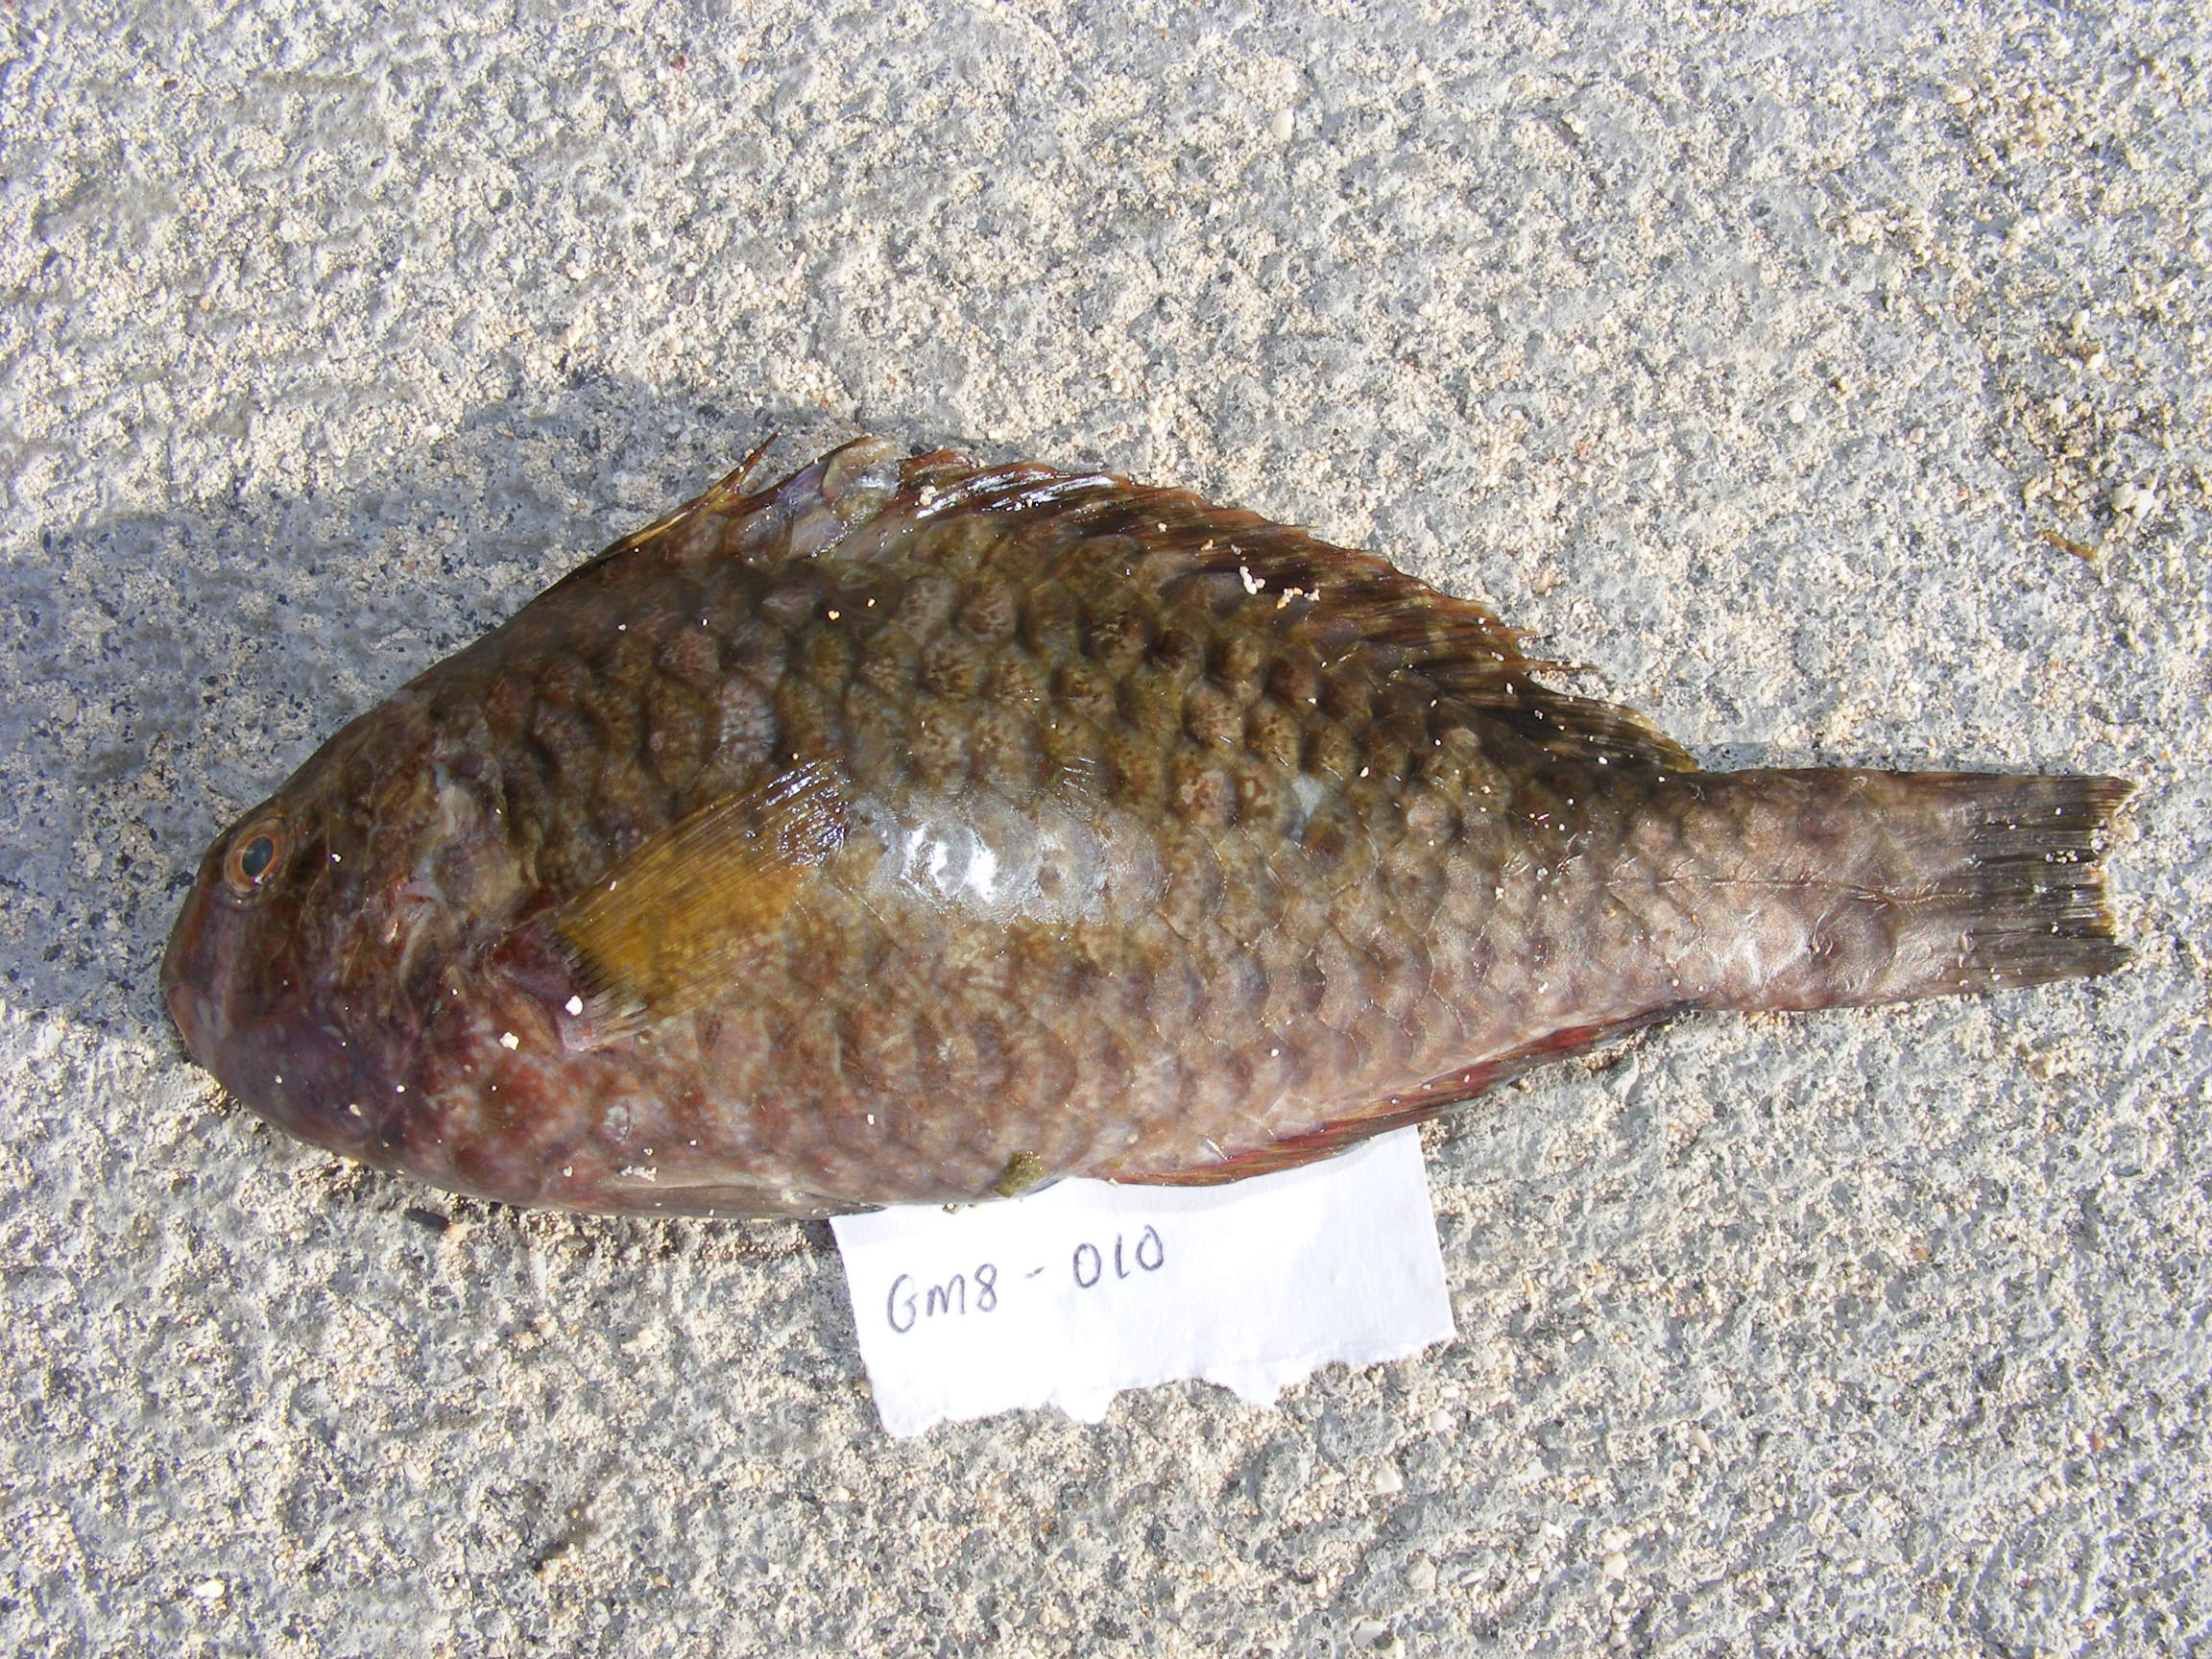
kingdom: Animalia
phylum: Chordata
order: Perciformes
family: Scaridae
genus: Calotomus
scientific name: Calotomus carolinus
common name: Bucktooth
